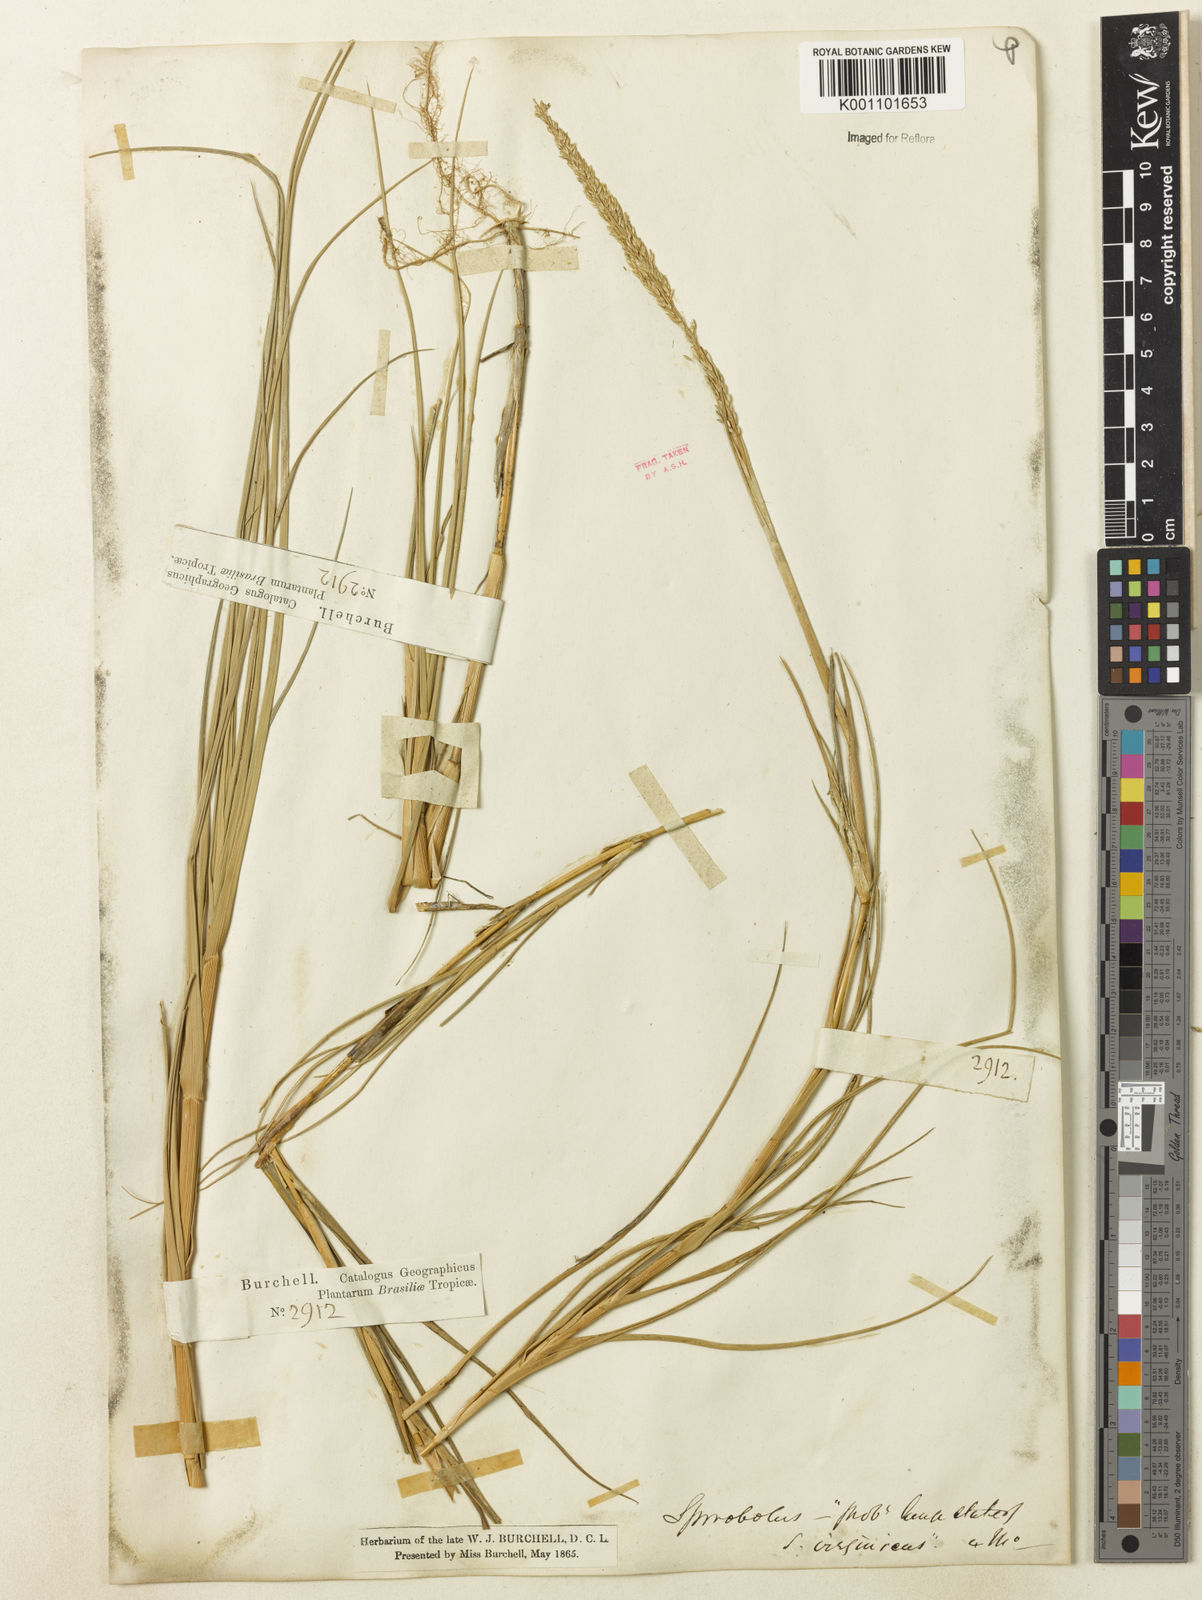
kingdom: Plantae
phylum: Tracheophyta
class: Liliopsida
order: Poales
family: Poaceae
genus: Sporobolus
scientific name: Sporobolus virginicus
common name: Beach dropseed
